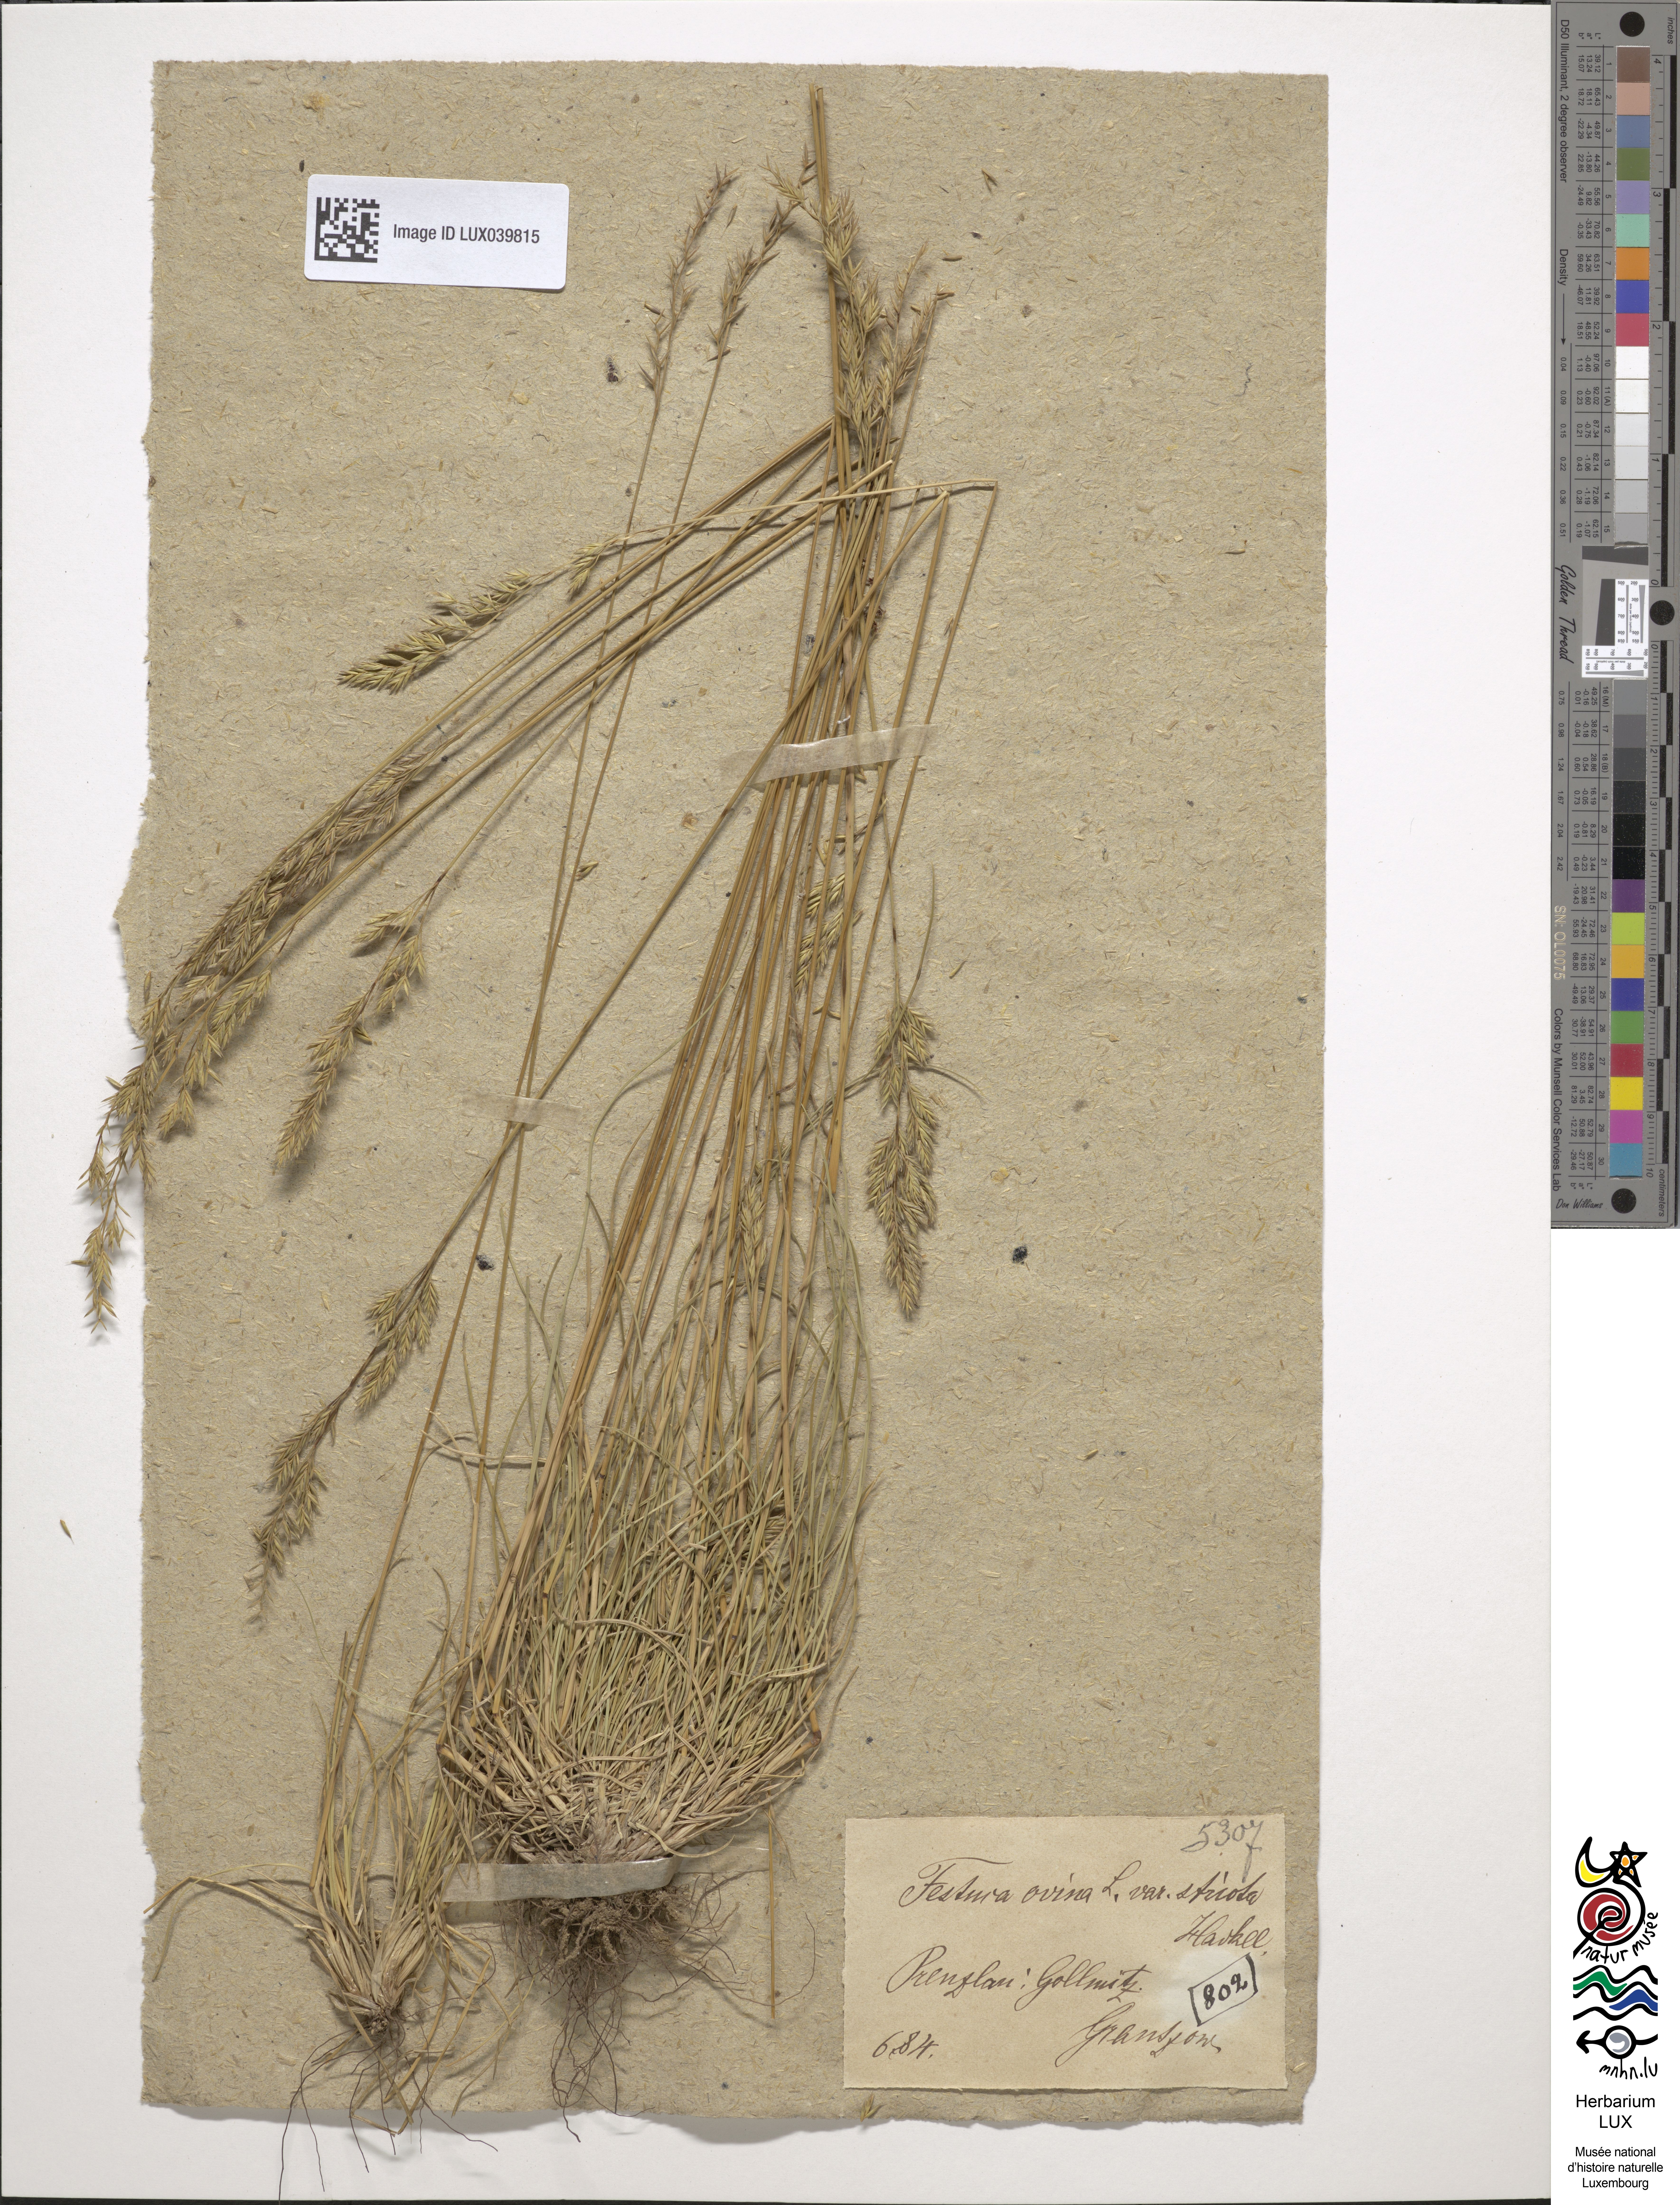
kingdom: Plantae
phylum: Tracheophyta
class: Liliopsida
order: Poales
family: Poaceae
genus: Festuca
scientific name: Festuca ovina
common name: Sheep fescue
